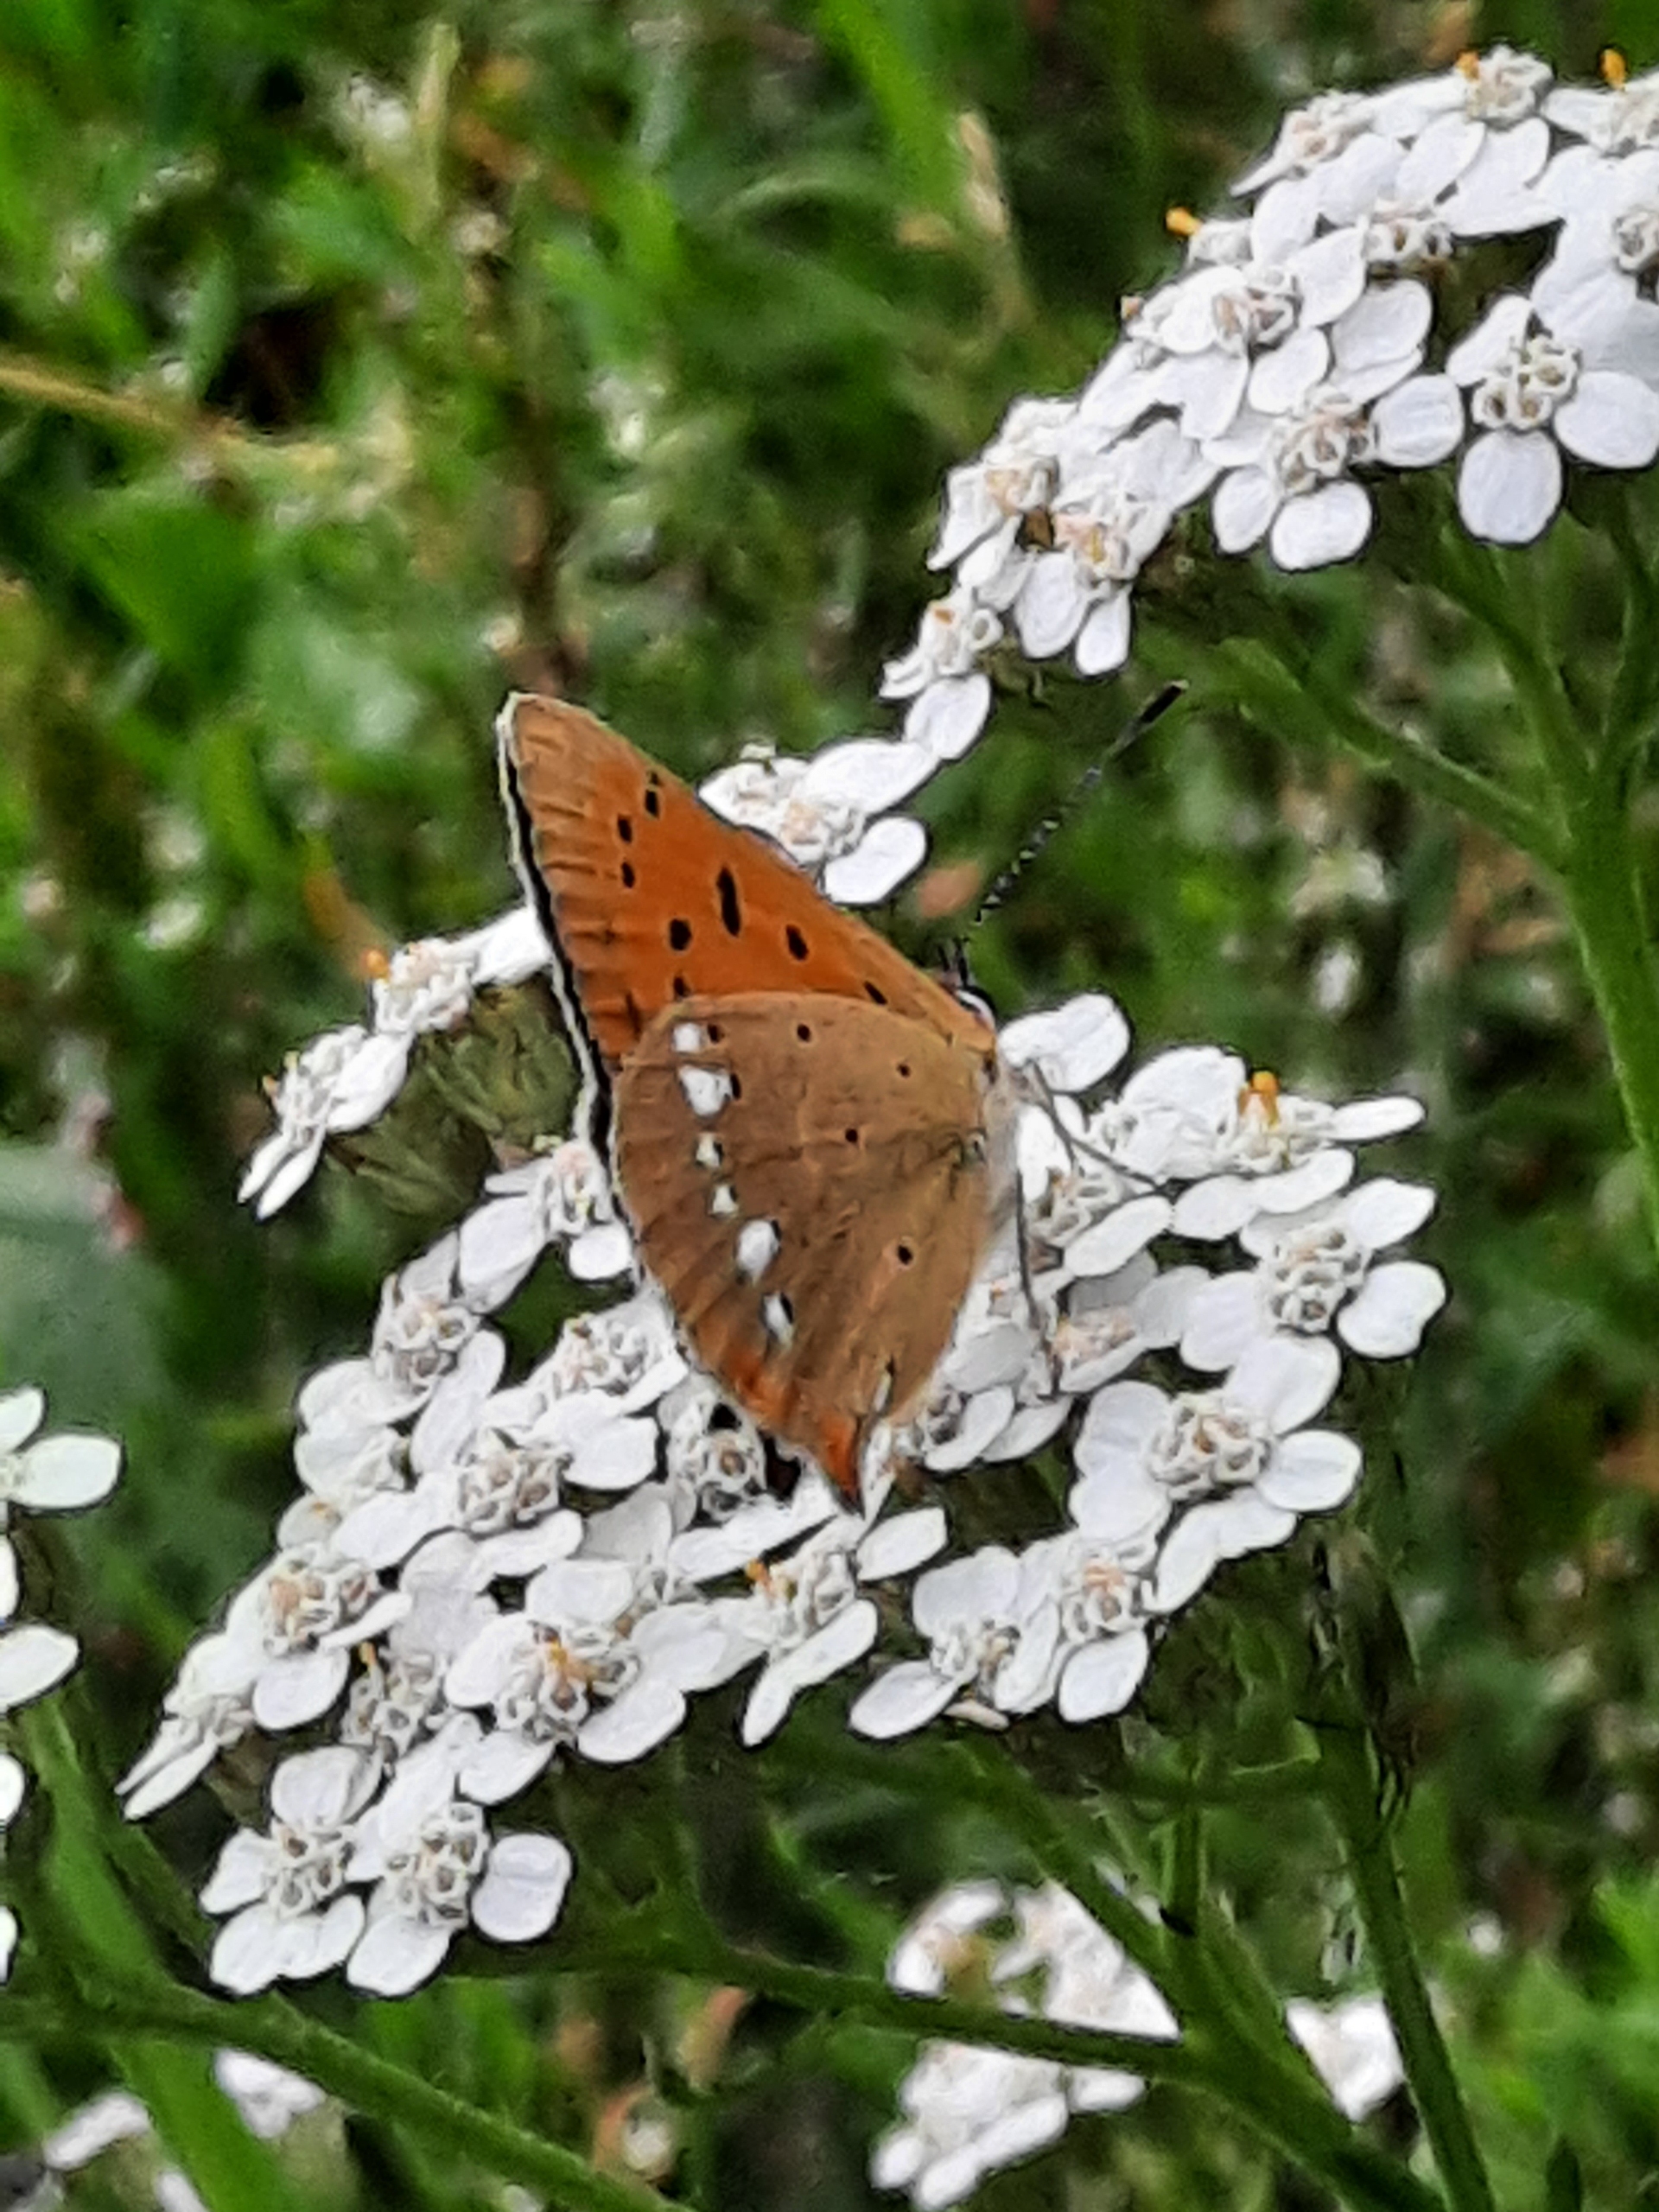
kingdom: Animalia
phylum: Arthropoda
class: Insecta
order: Lepidoptera
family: Lycaenidae
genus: Lycaena
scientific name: Lycaena virgaureae
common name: Dukatsommerfugl
